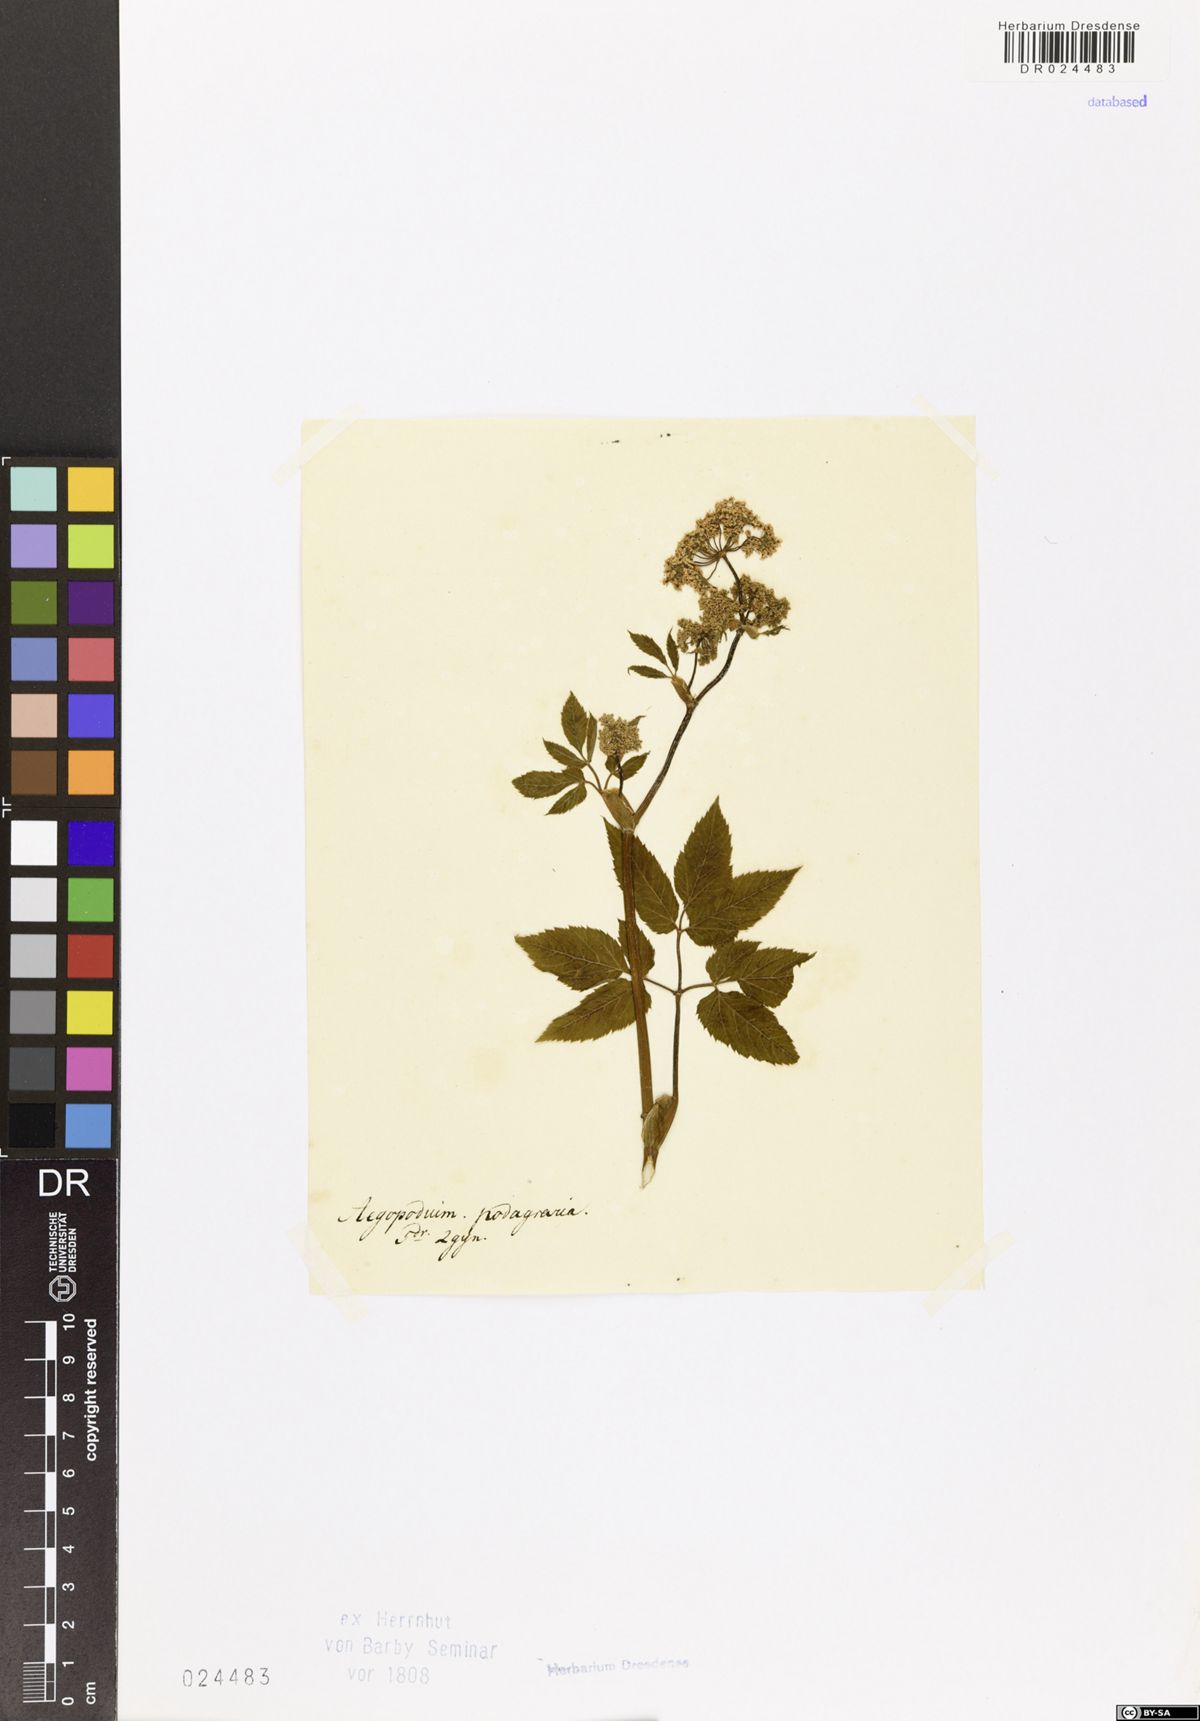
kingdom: Plantae
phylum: Tracheophyta
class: Magnoliopsida
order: Apiales
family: Apiaceae
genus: Aegopodium
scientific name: Aegopodium podagraria
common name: Ground-elder
